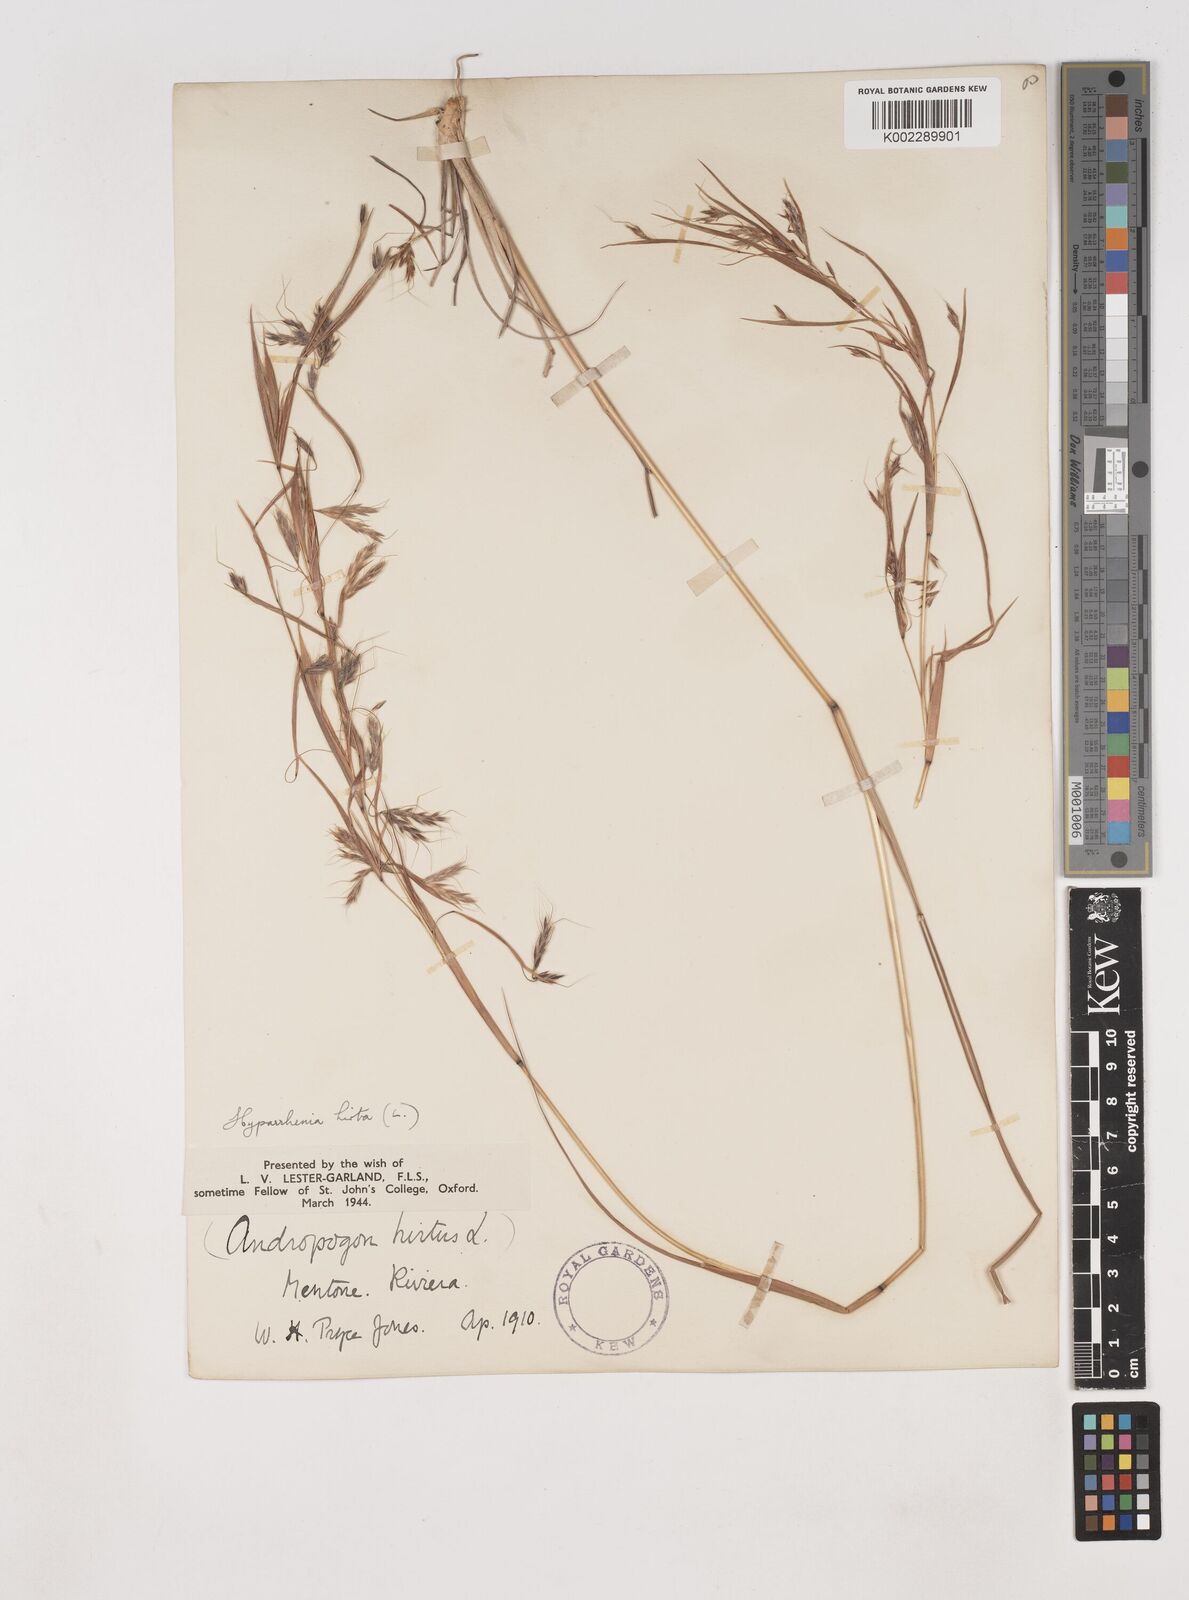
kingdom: Plantae
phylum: Tracheophyta
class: Liliopsida
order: Poales
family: Poaceae
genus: Hyparrhenia
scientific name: Hyparrhenia hirta
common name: Thatching grass
